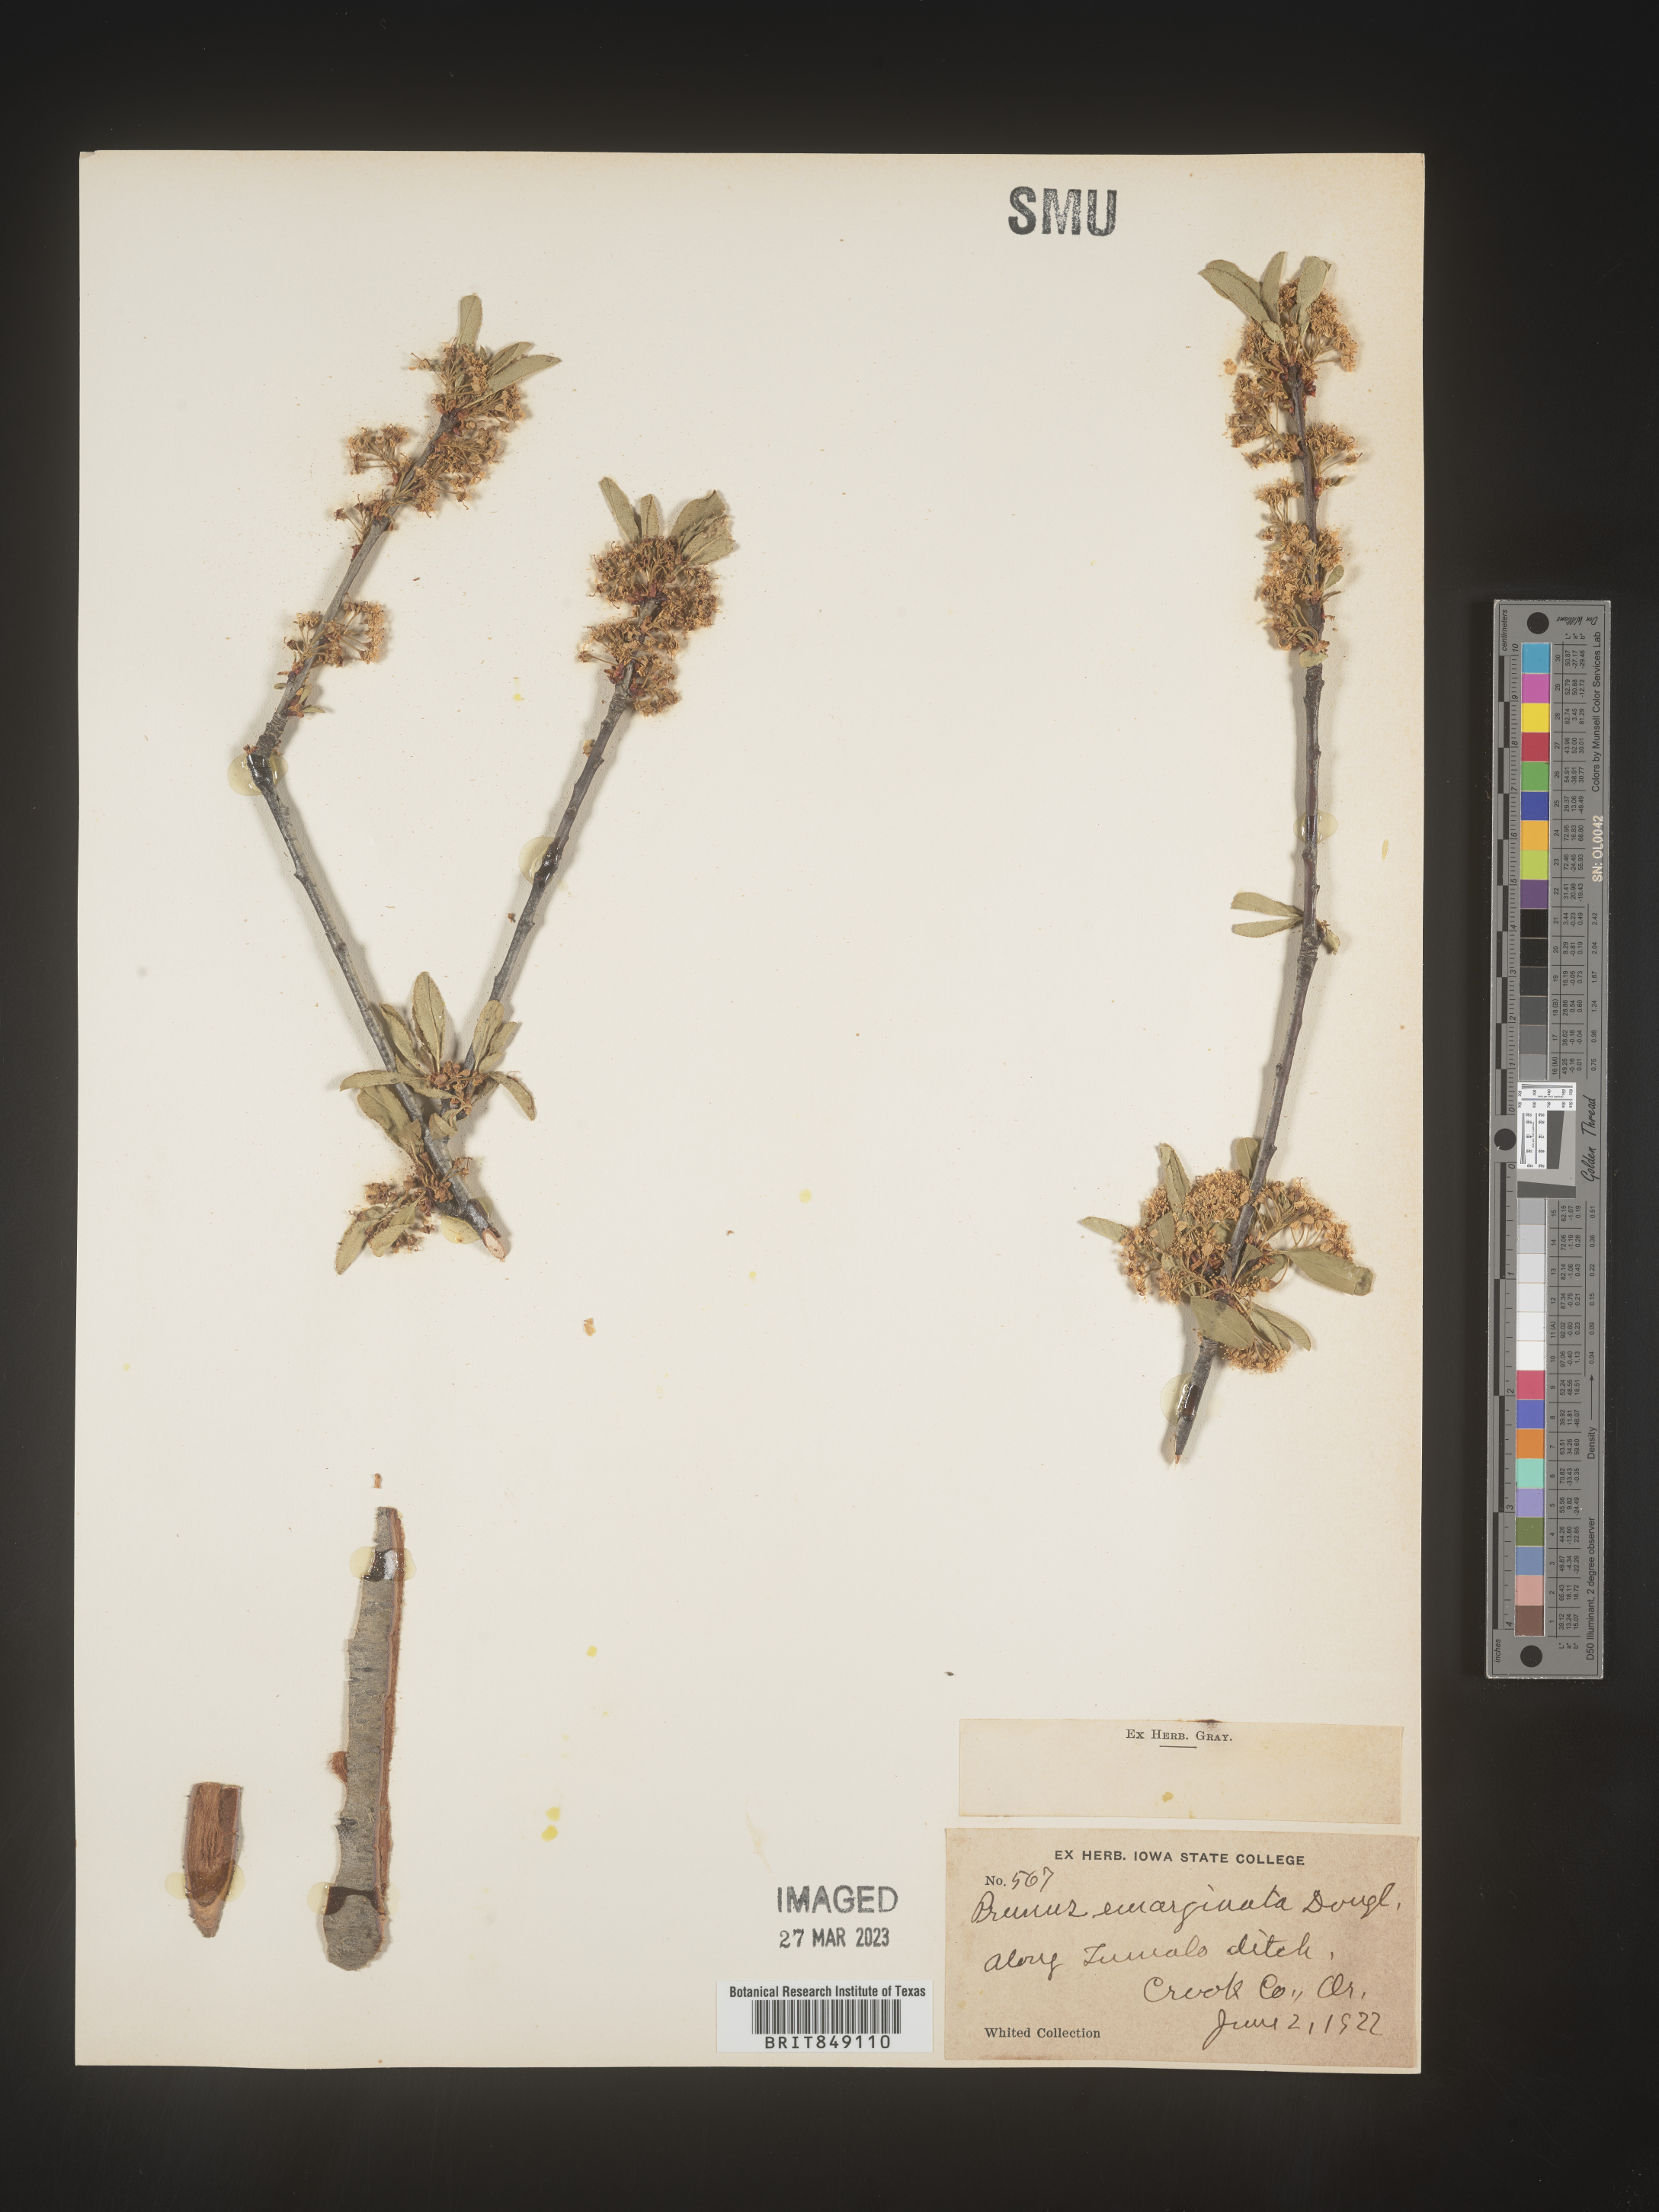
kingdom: Plantae
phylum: Tracheophyta
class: Magnoliopsida
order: Rosales
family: Rosaceae
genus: Prunus
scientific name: Prunus emarginata
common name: Bitter cherry
